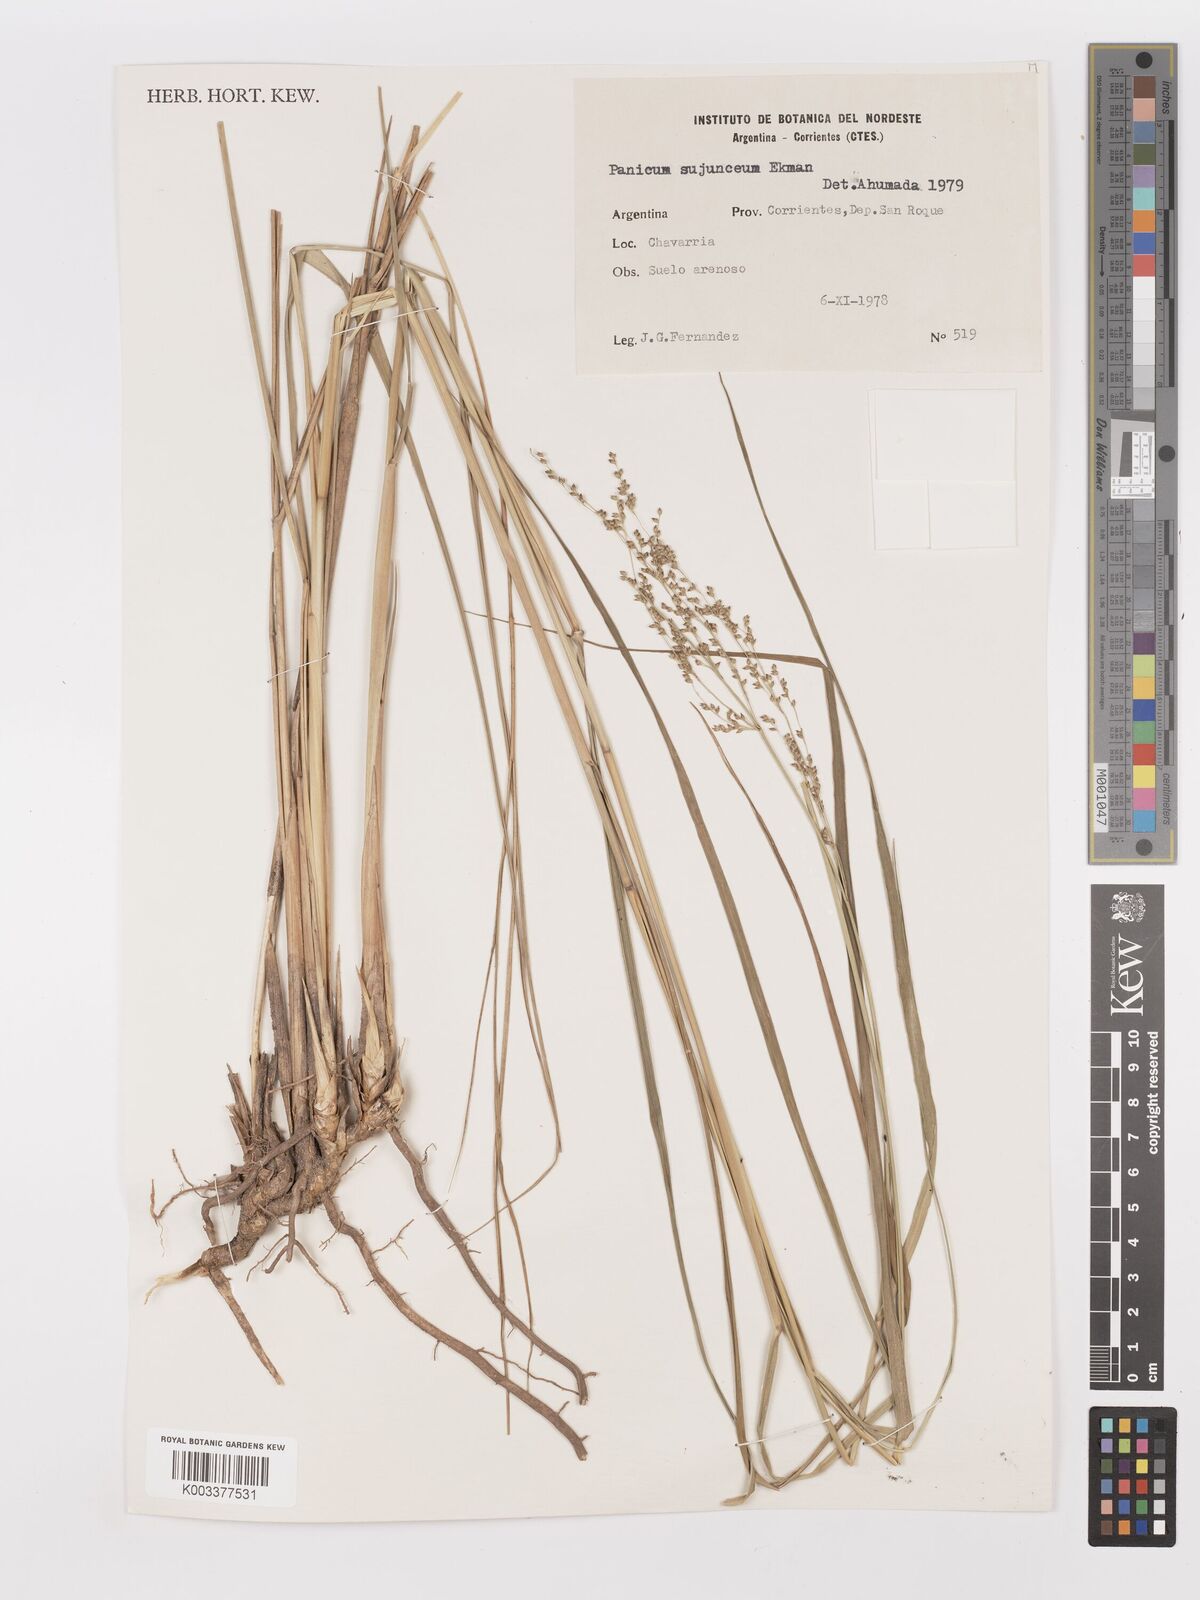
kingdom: Plantae
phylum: Tracheophyta
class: Liliopsida
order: Poales
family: Poaceae
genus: Panicum
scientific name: Panicum glabripes
